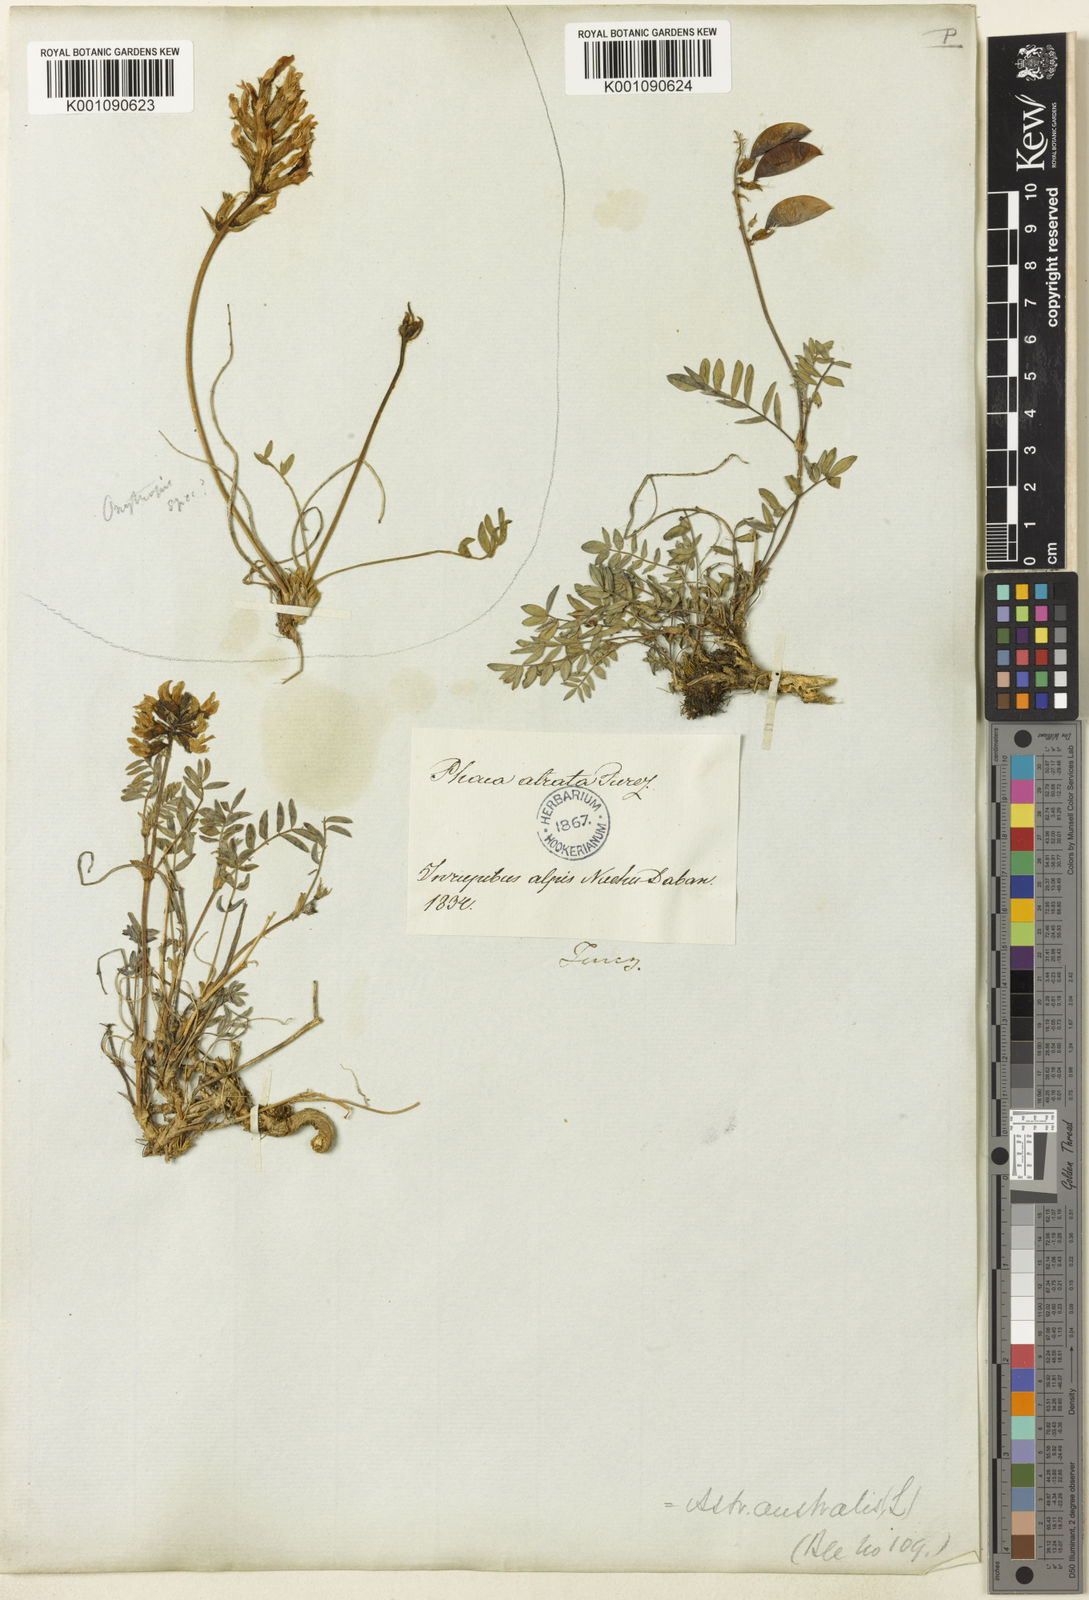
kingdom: Plantae
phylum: Tracheophyta
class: Magnoliopsida
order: Fabales
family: Fabaceae
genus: Astragalus
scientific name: Astragalus
